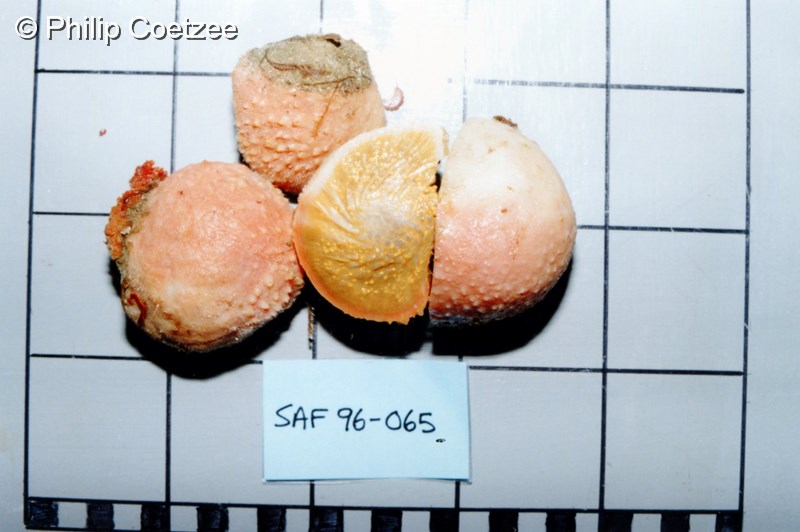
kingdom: Animalia
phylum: Porifera
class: Demospongiae
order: Tethyida
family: Tethyidae
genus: Tethya
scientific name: Tethya
